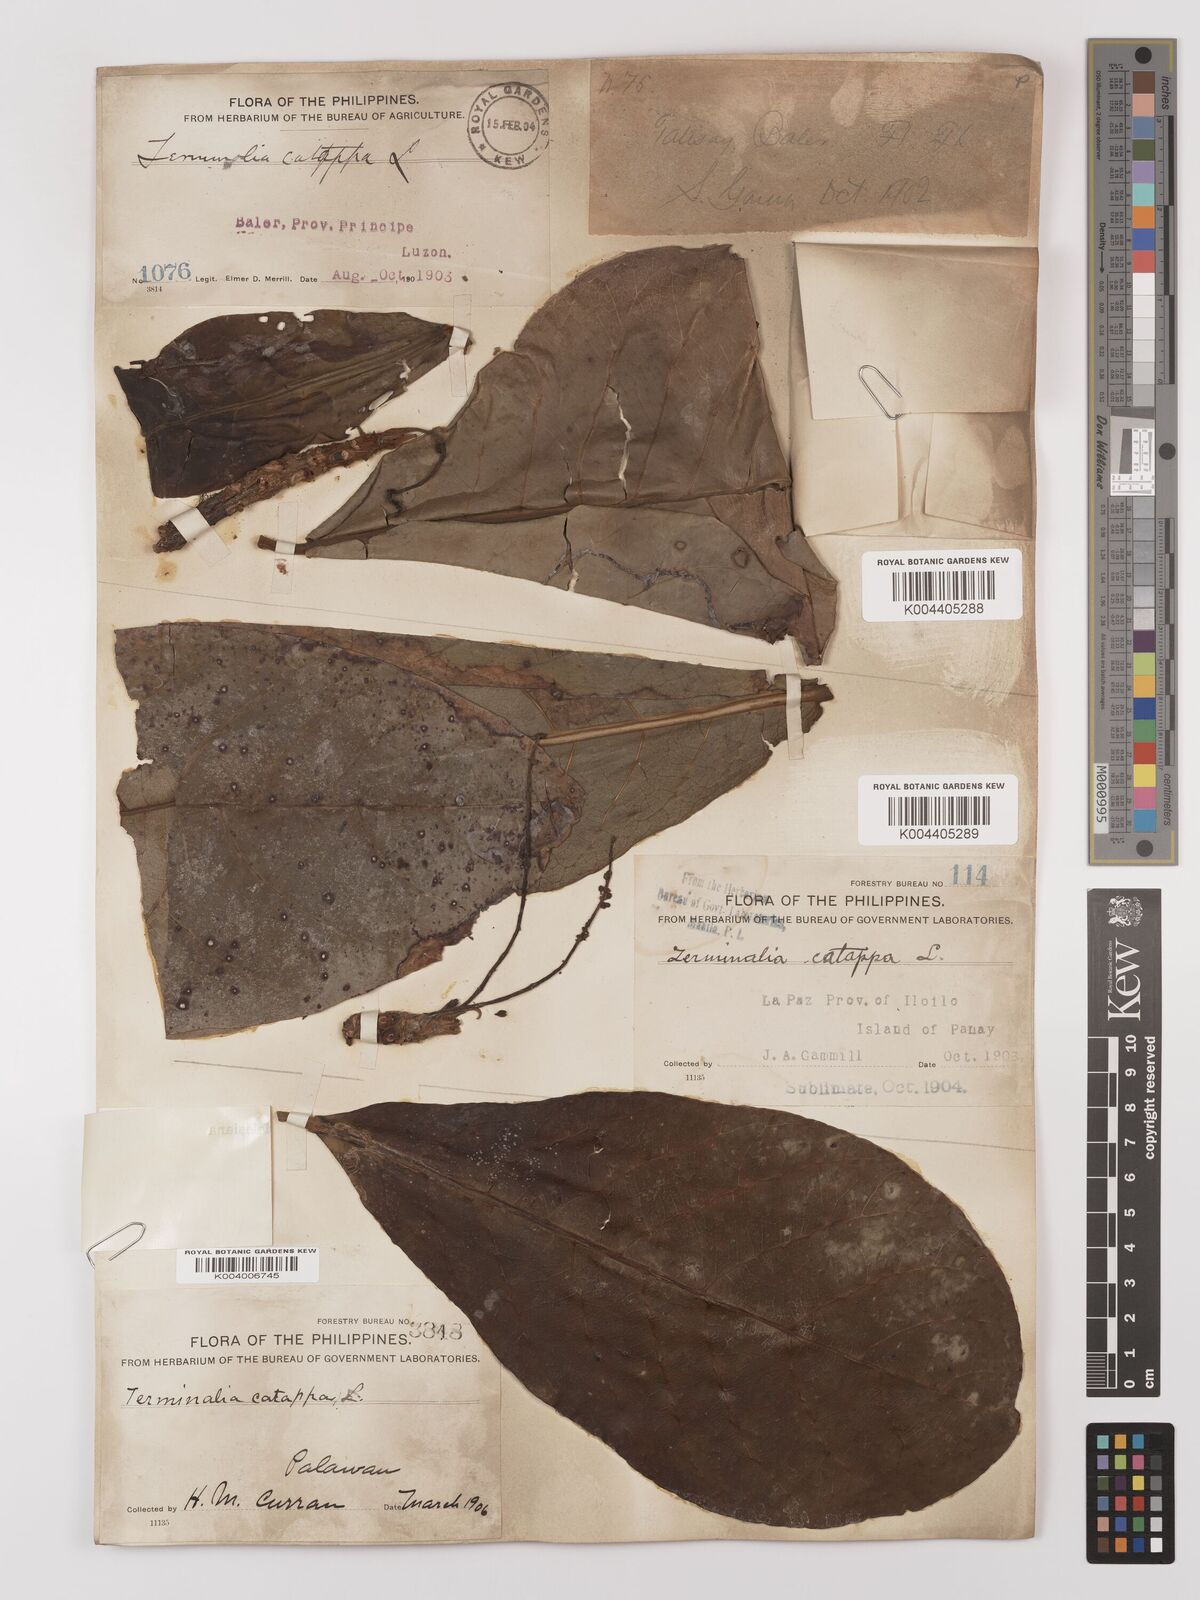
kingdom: Plantae
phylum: Tracheophyta
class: Magnoliopsida
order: Myrtales
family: Combretaceae
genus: Terminalia
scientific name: Terminalia catappa
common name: Tropical almond
